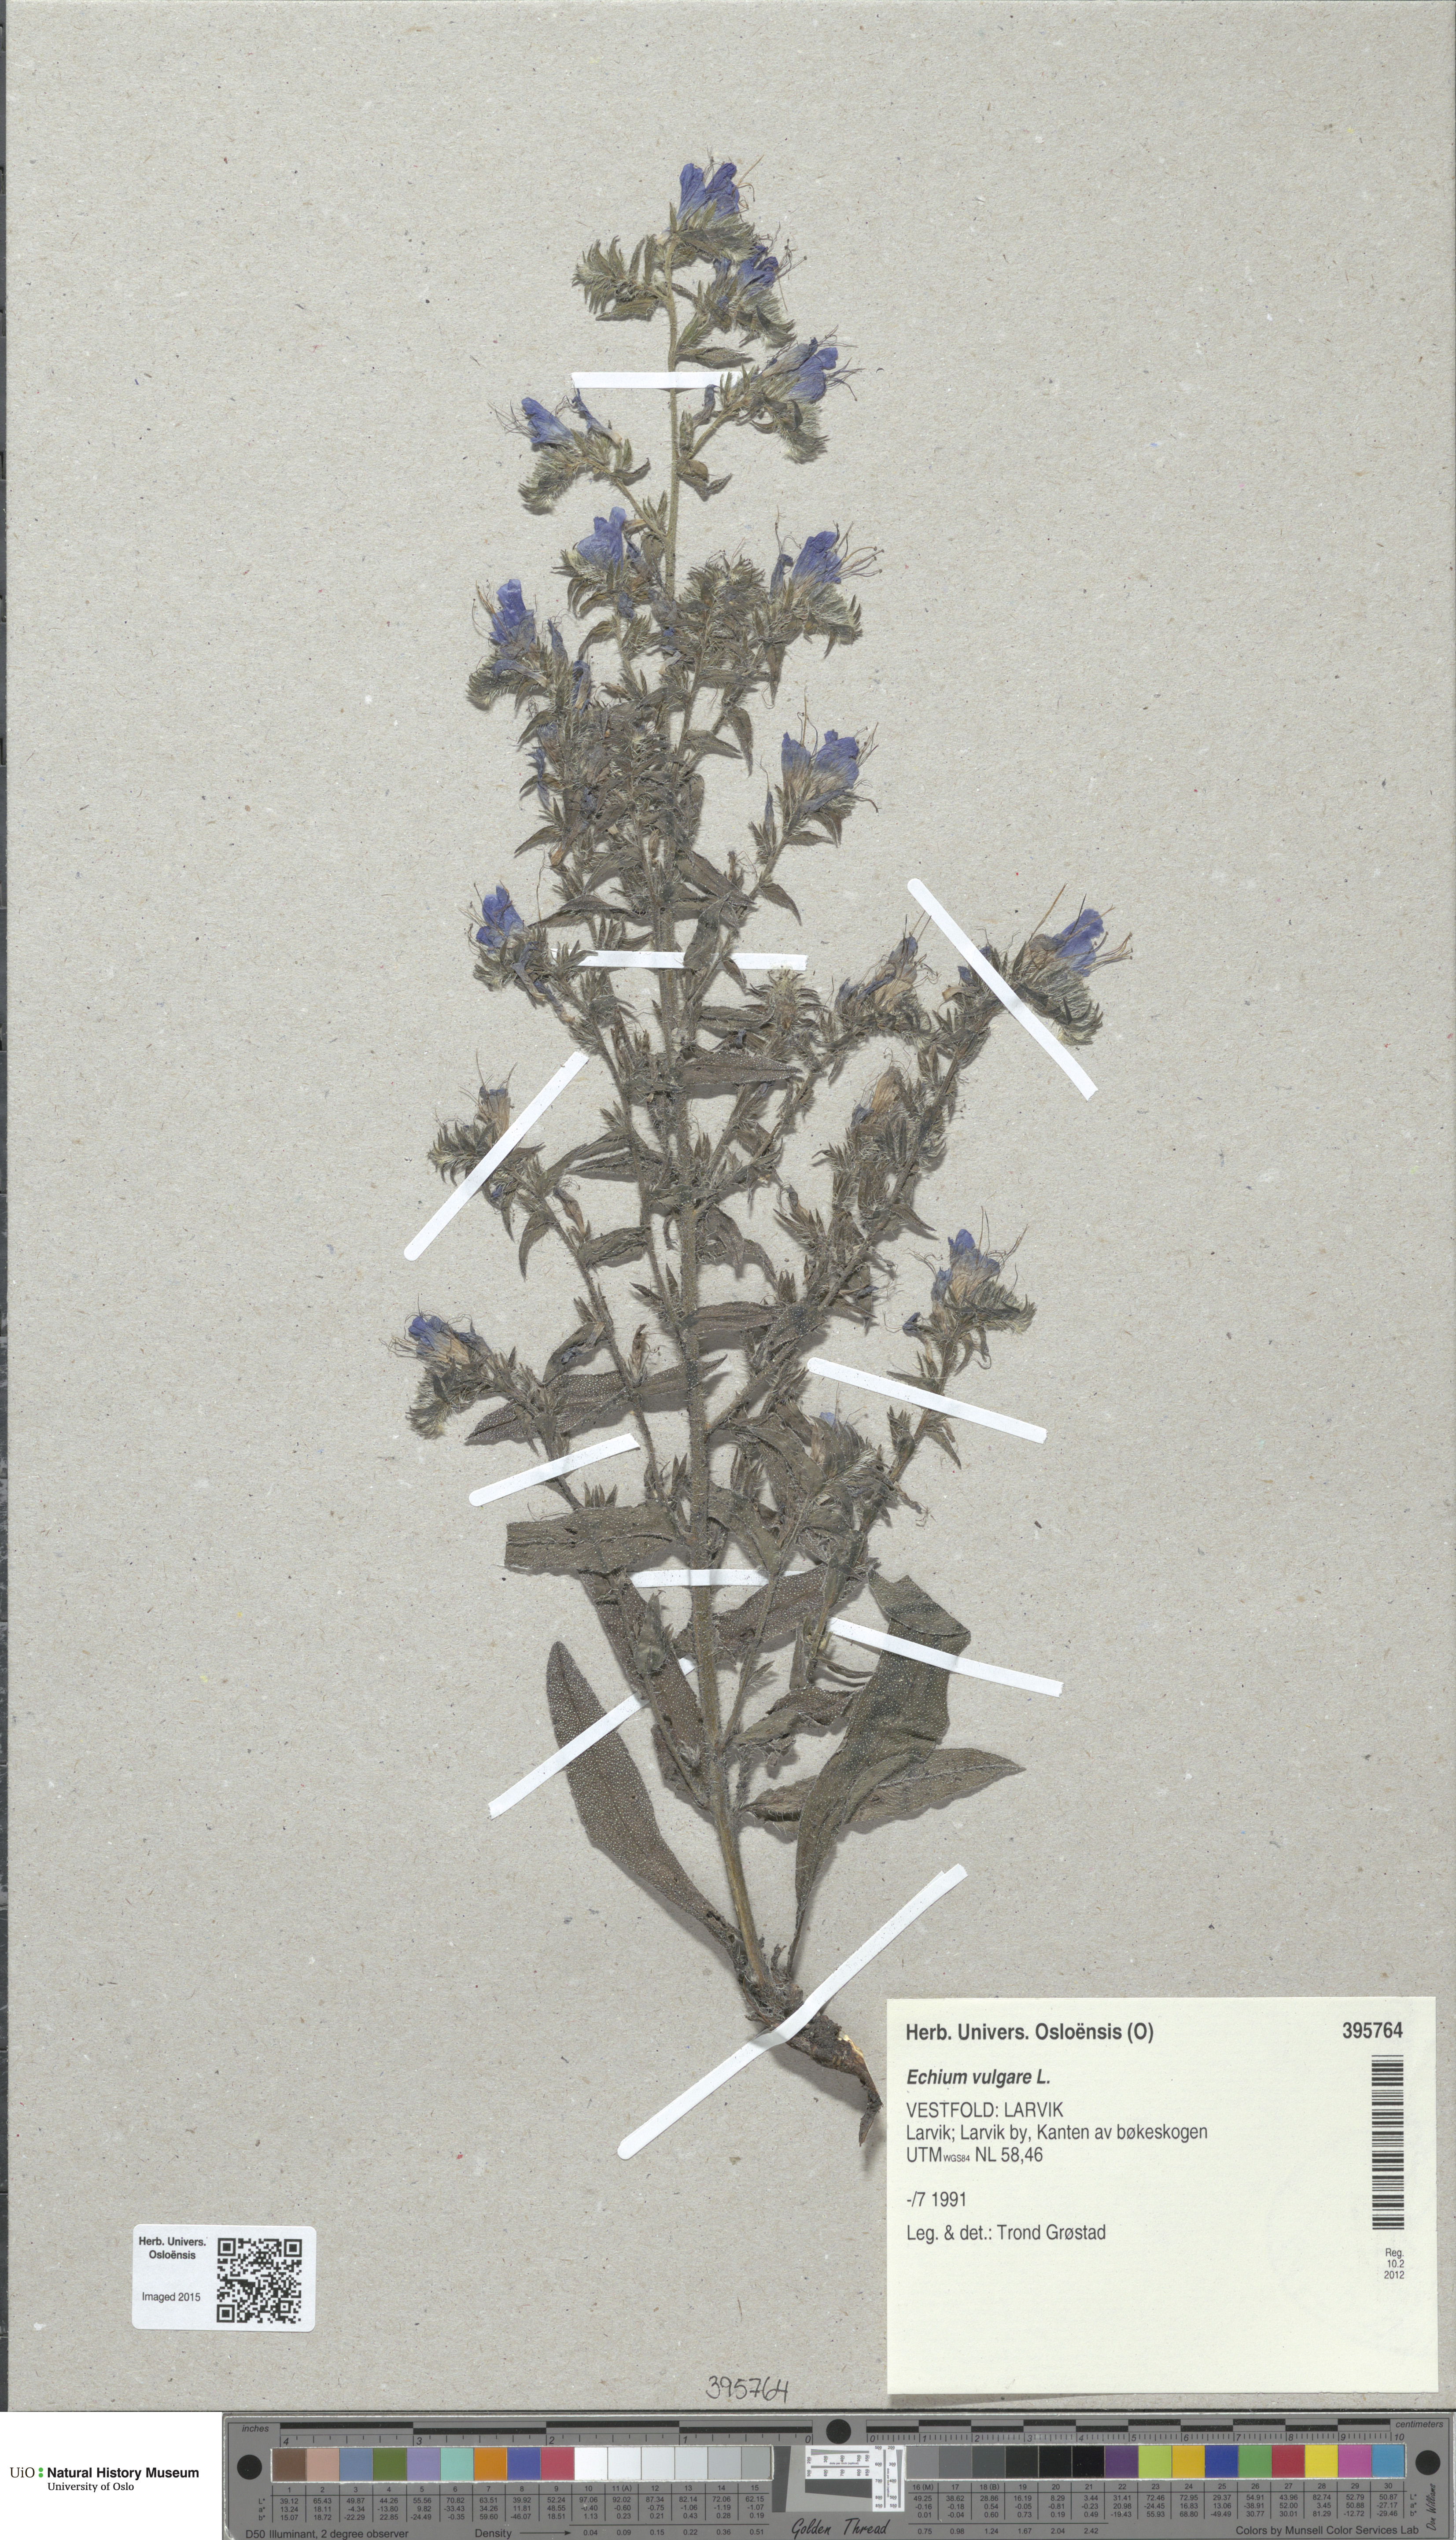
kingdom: Plantae
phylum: Tracheophyta
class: Magnoliopsida
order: Boraginales
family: Boraginaceae
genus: Echium
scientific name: Echium vulgare
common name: Common viper's bugloss
